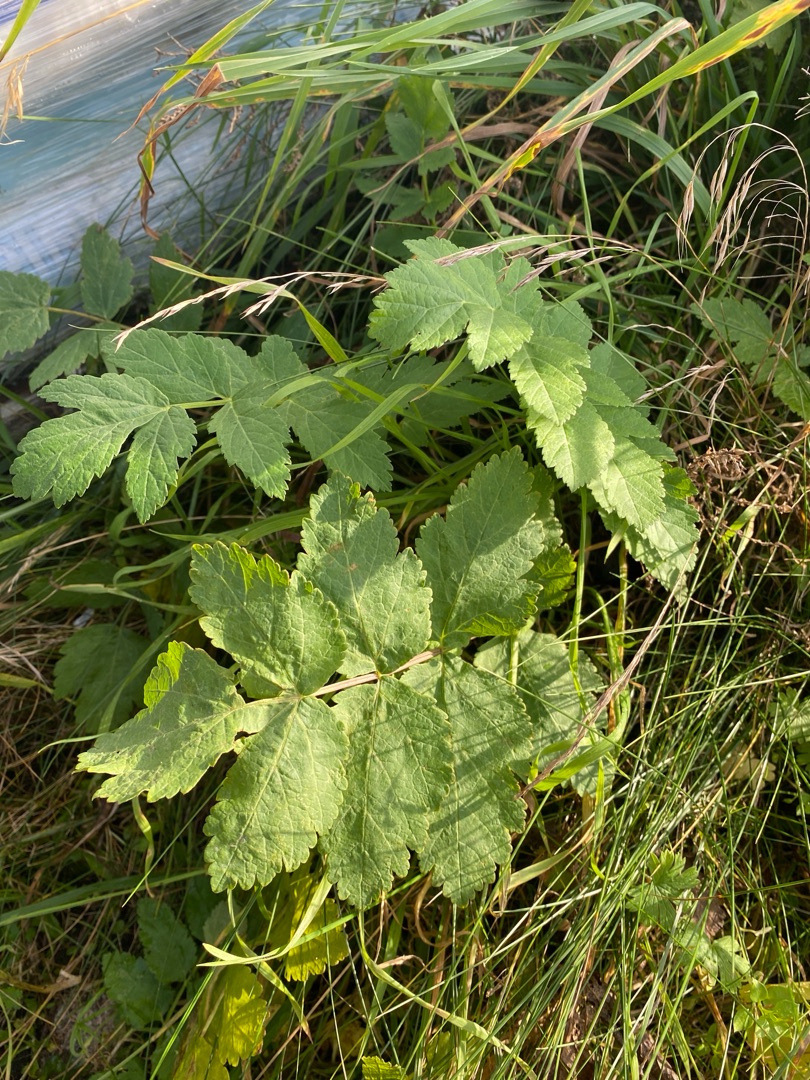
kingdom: Plantae
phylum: Tracheophyta
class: Magnoliopsida
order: Apiales
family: Apiaceae
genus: Pastinaca
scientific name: Pastinaca sativa
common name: Pastinak
